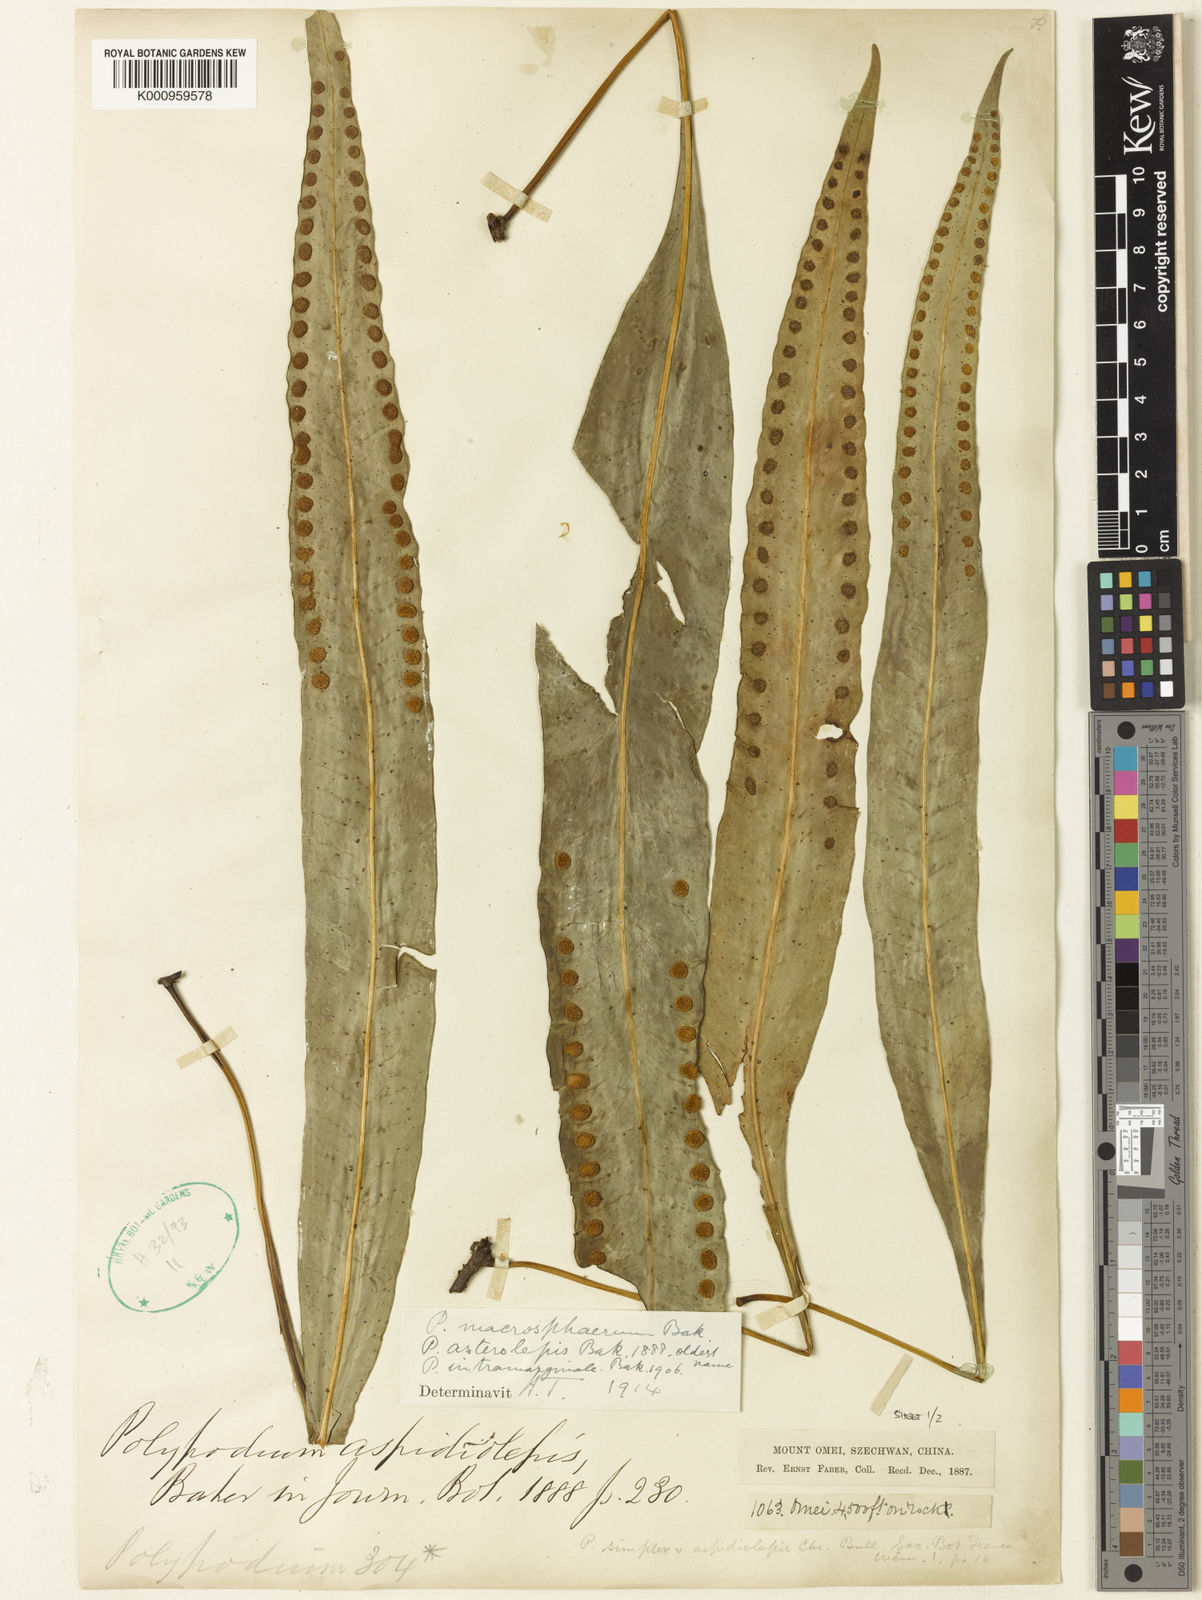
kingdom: Plantae
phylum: Tracheophyta
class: Polypodiopsida
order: Polypodiales
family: Polypodiaceae
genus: Lepisorus
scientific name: Lepisorus asterolepis
